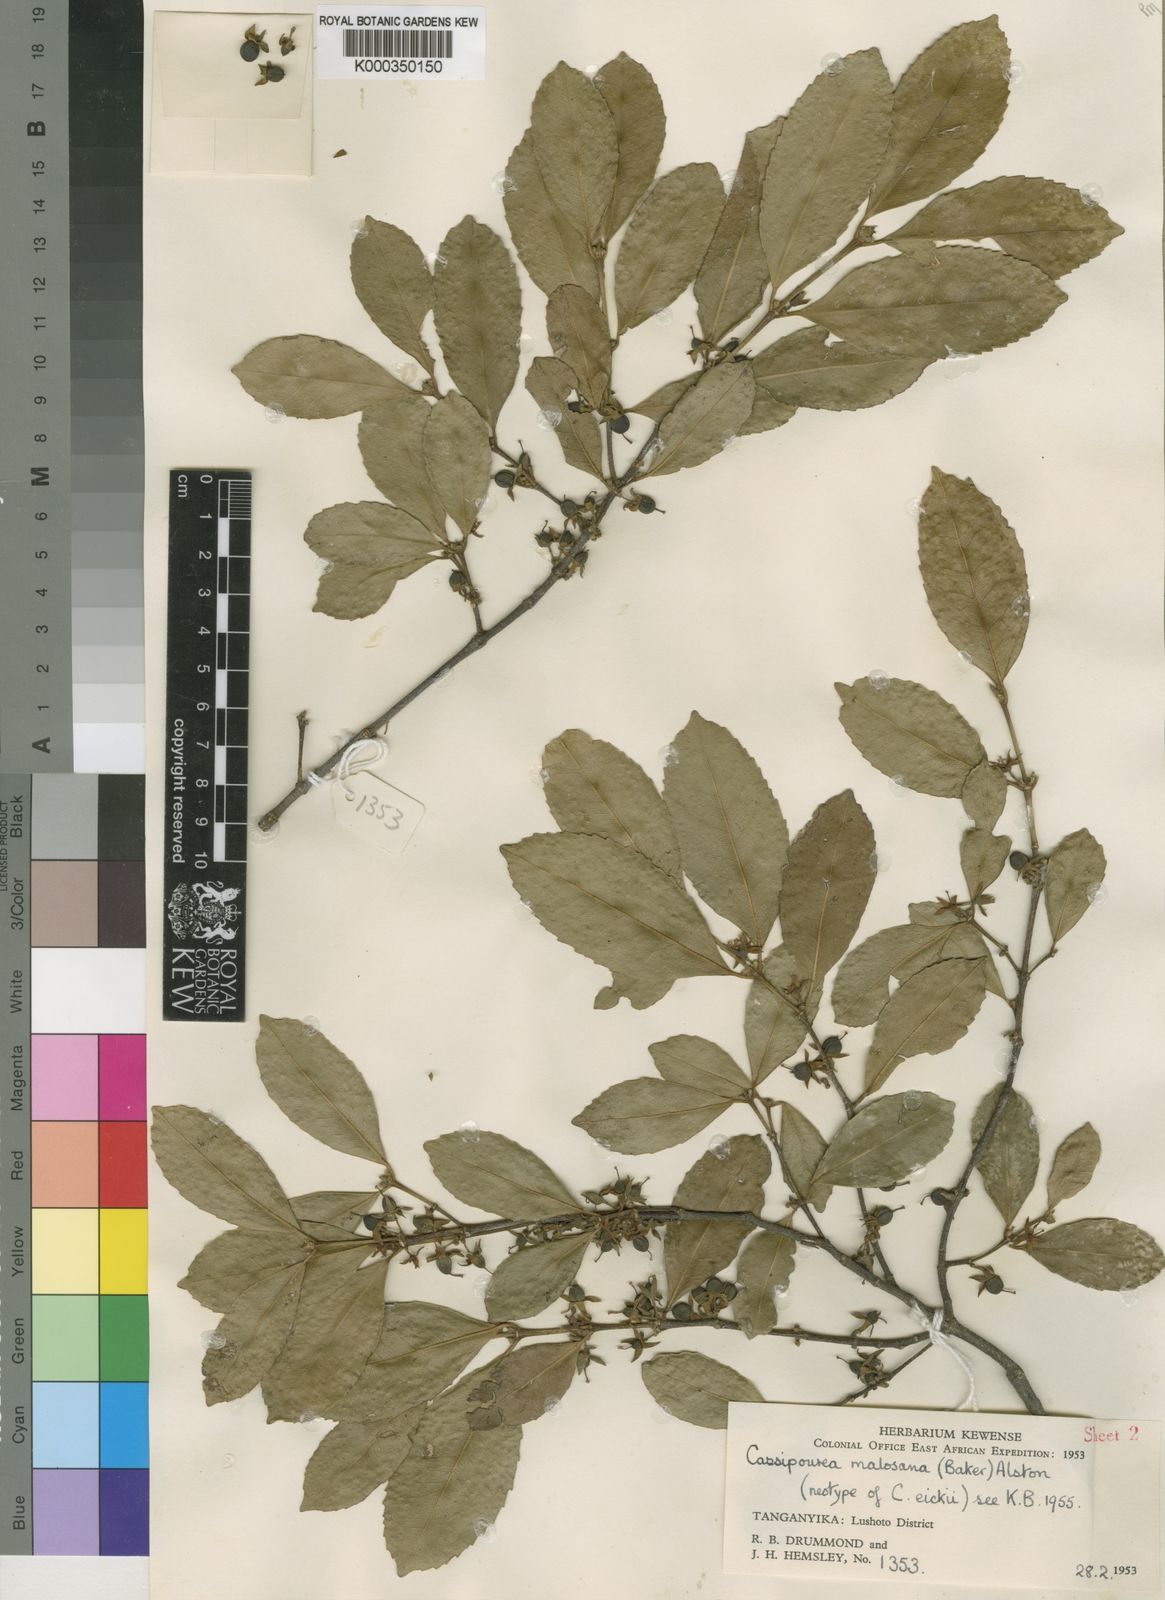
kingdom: Plantae
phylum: Tracheophyta
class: Magnoliopsida
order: Malpighiales
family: Rhizophoraceae
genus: Cassipourea
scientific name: Cassipourea malosana
